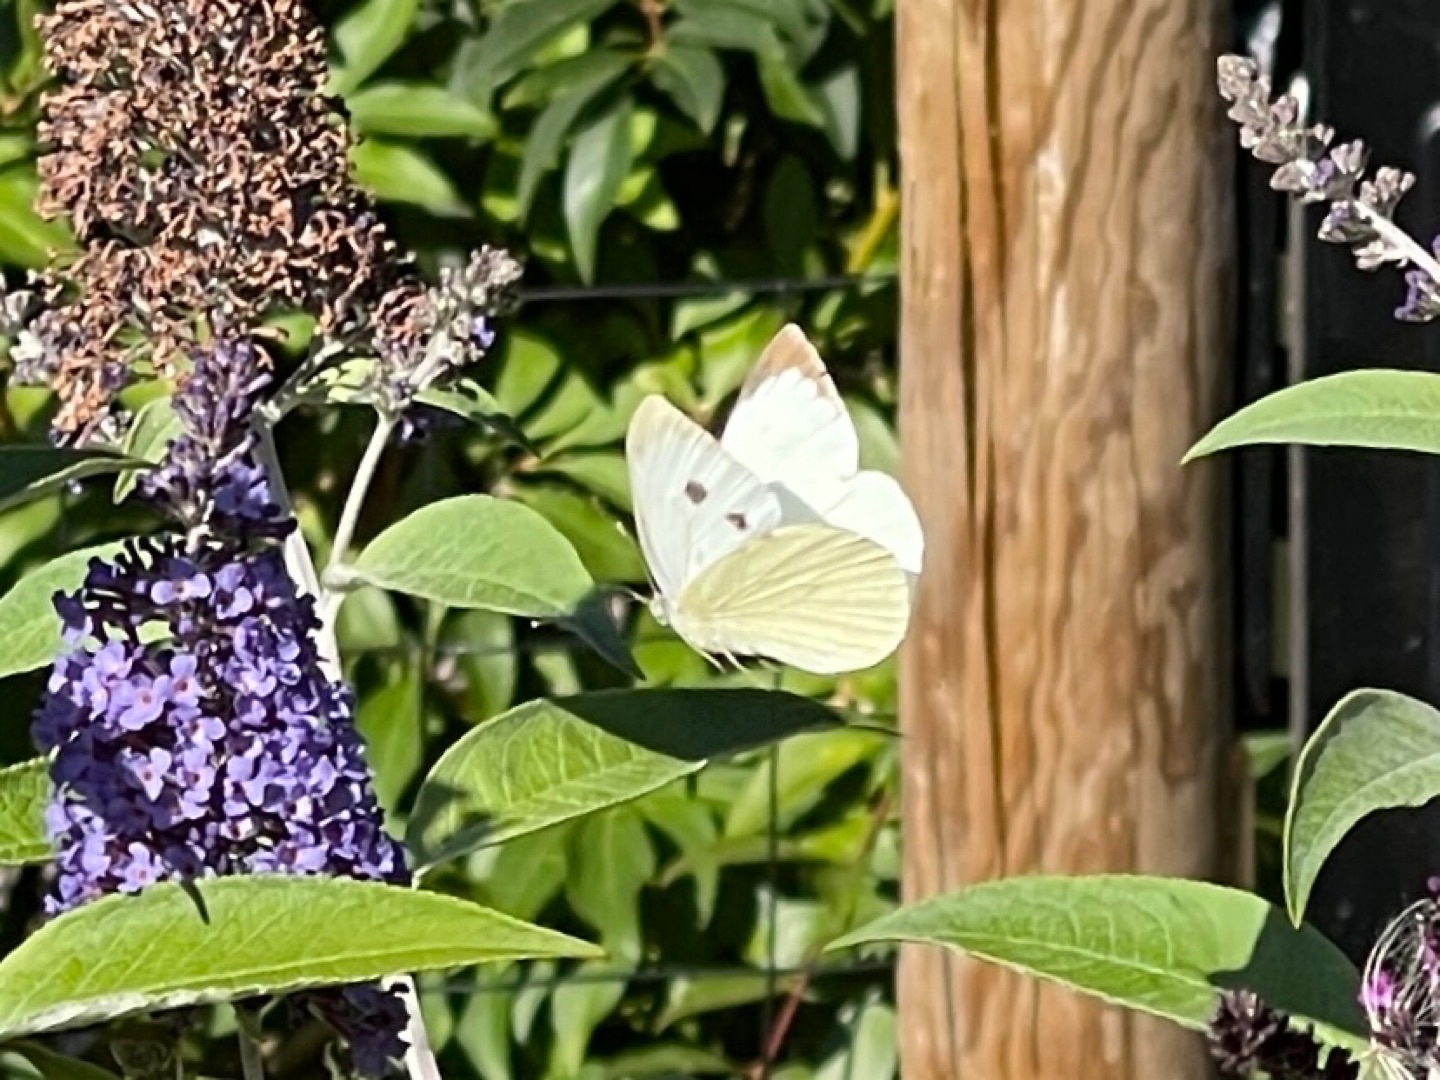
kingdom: Animalia
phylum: Arthropoda
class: Insecta
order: Lepidoptera
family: Pieridae
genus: Pieris
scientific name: Pieris brassicae
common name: Stor kålsommerfugl
